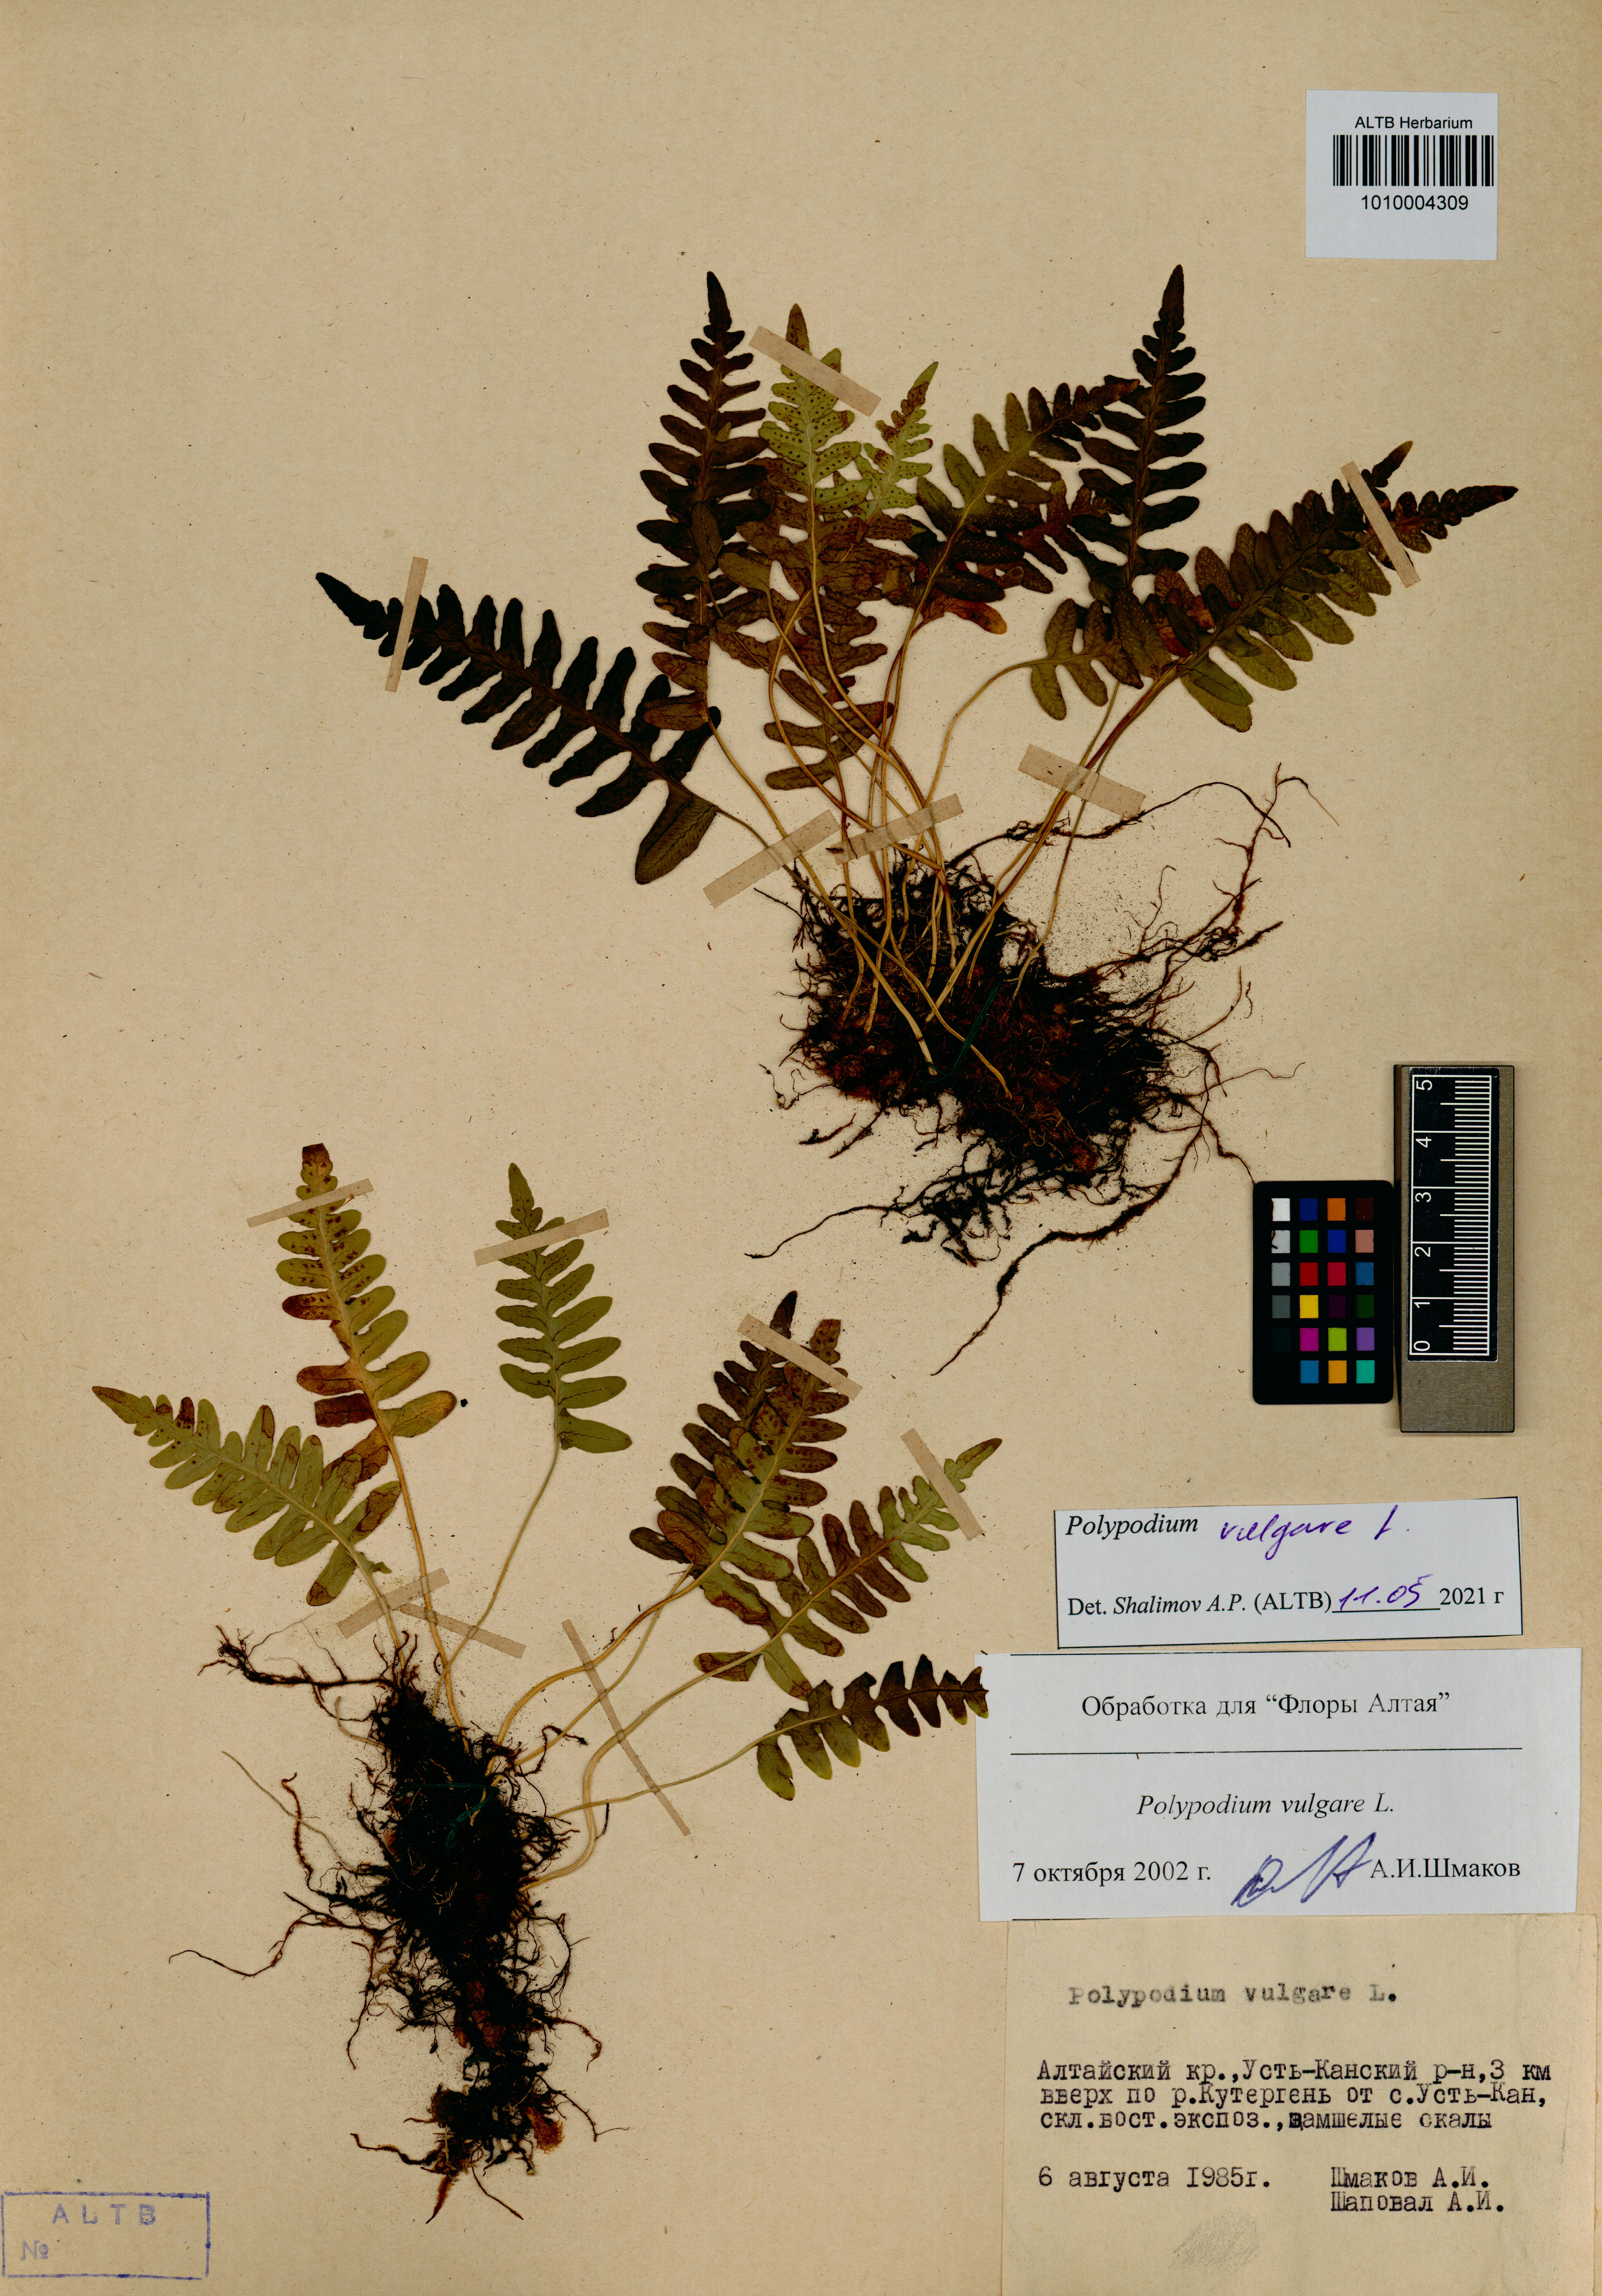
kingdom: Plantae
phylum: Tracheophyta
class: Polypodiopsida
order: Polypodiales
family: Polypodiaceae
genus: Polypodium
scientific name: Polypodium vulgare
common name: Common polypody
